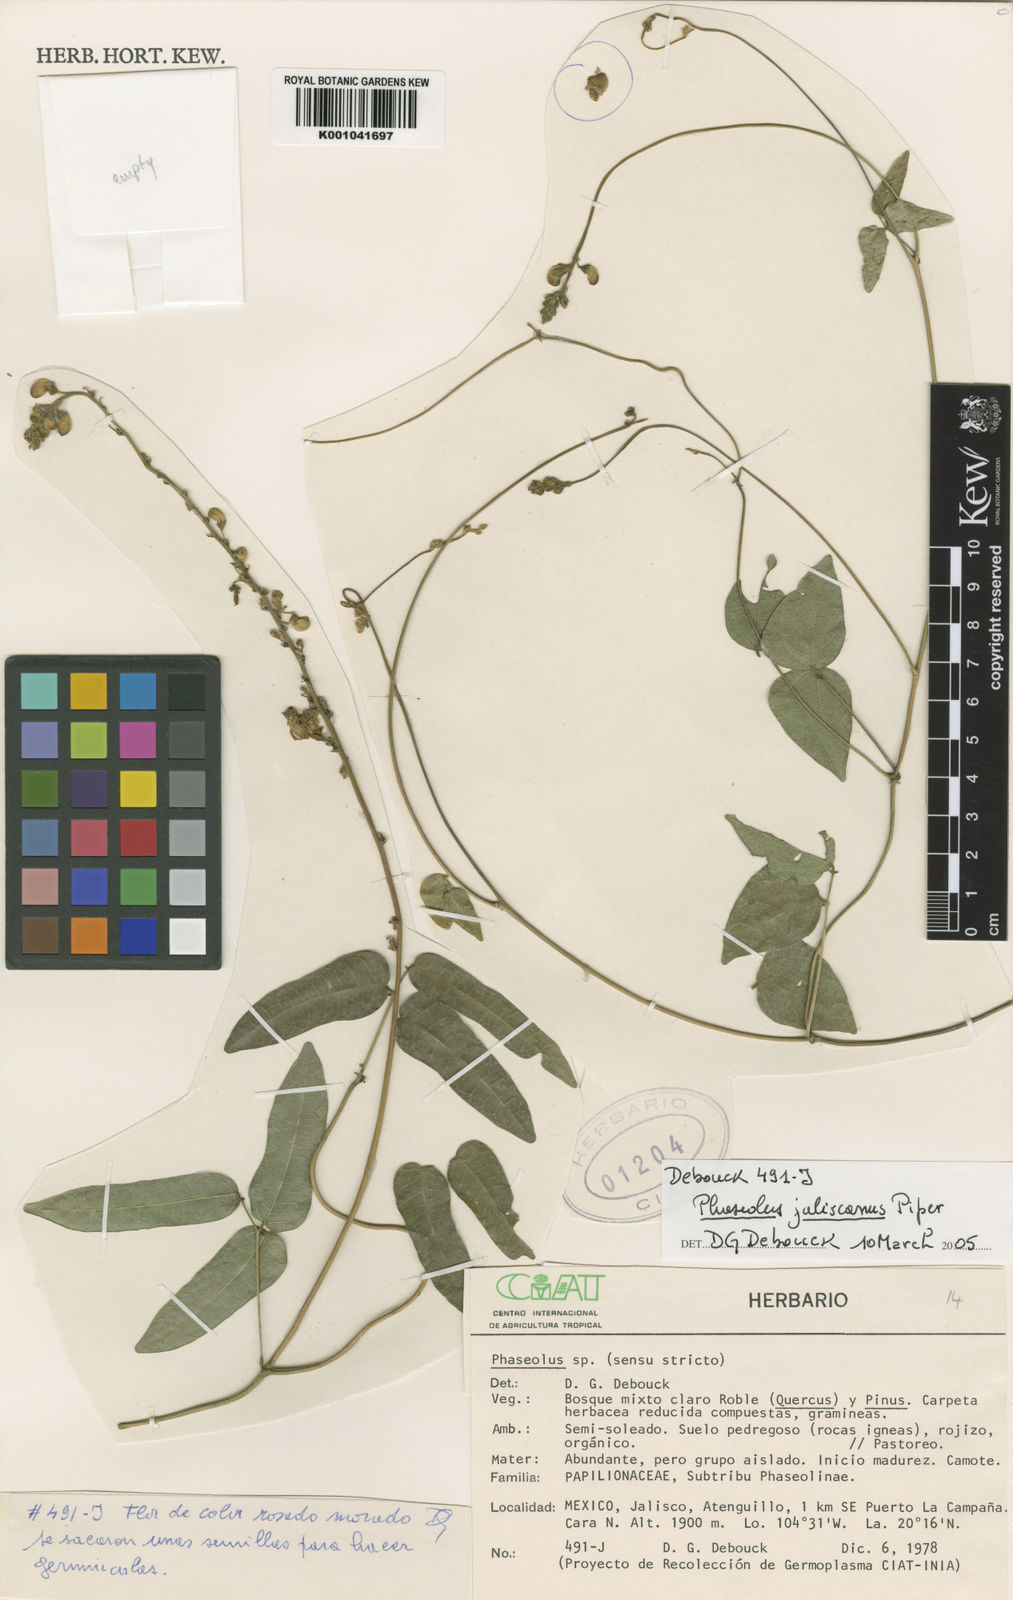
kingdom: Plantae
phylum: Tracheophyta
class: Magnoliopsida
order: Fabales
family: Fabaceae
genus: Phaseolus
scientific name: Phaseolus jaliscanus
